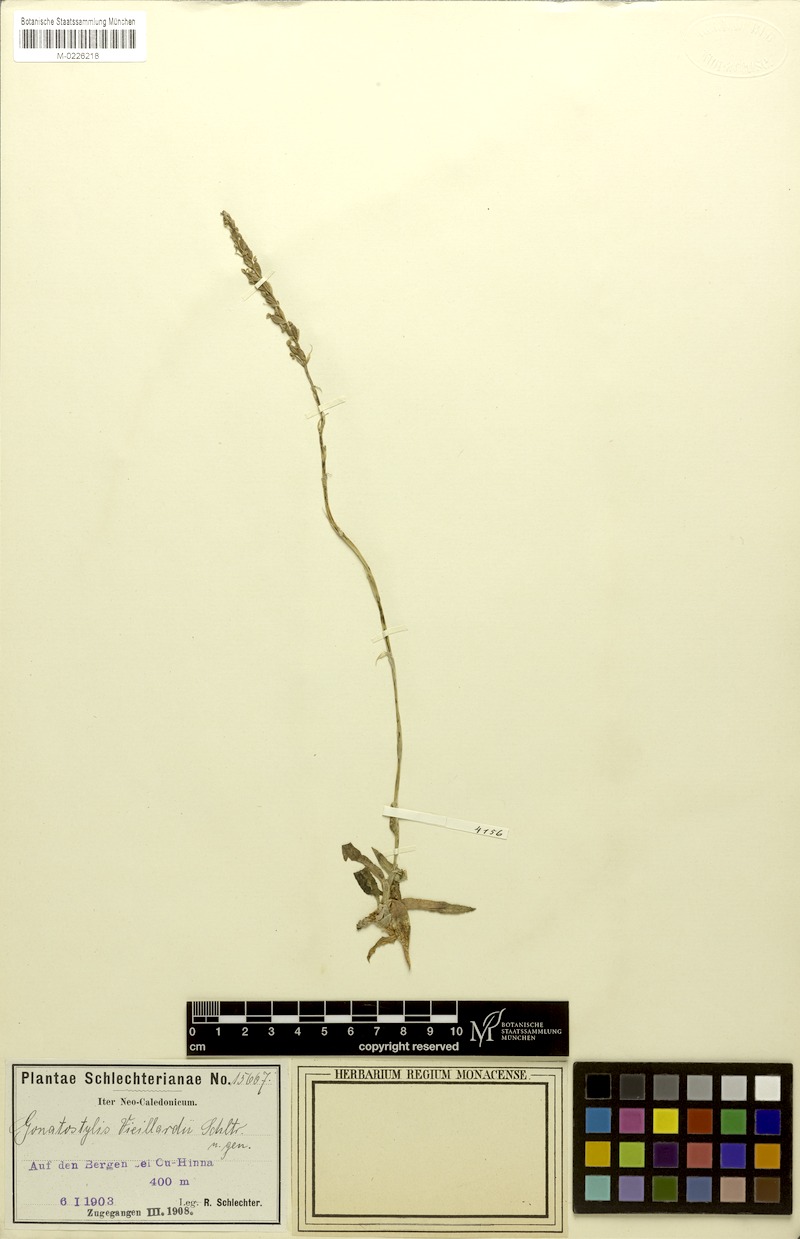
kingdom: Plantae
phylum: Tracheophyta
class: Liliopsida
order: Asparagales
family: Orchidaceae
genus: Gonatostylis
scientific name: Gonatostylis vieillardii
